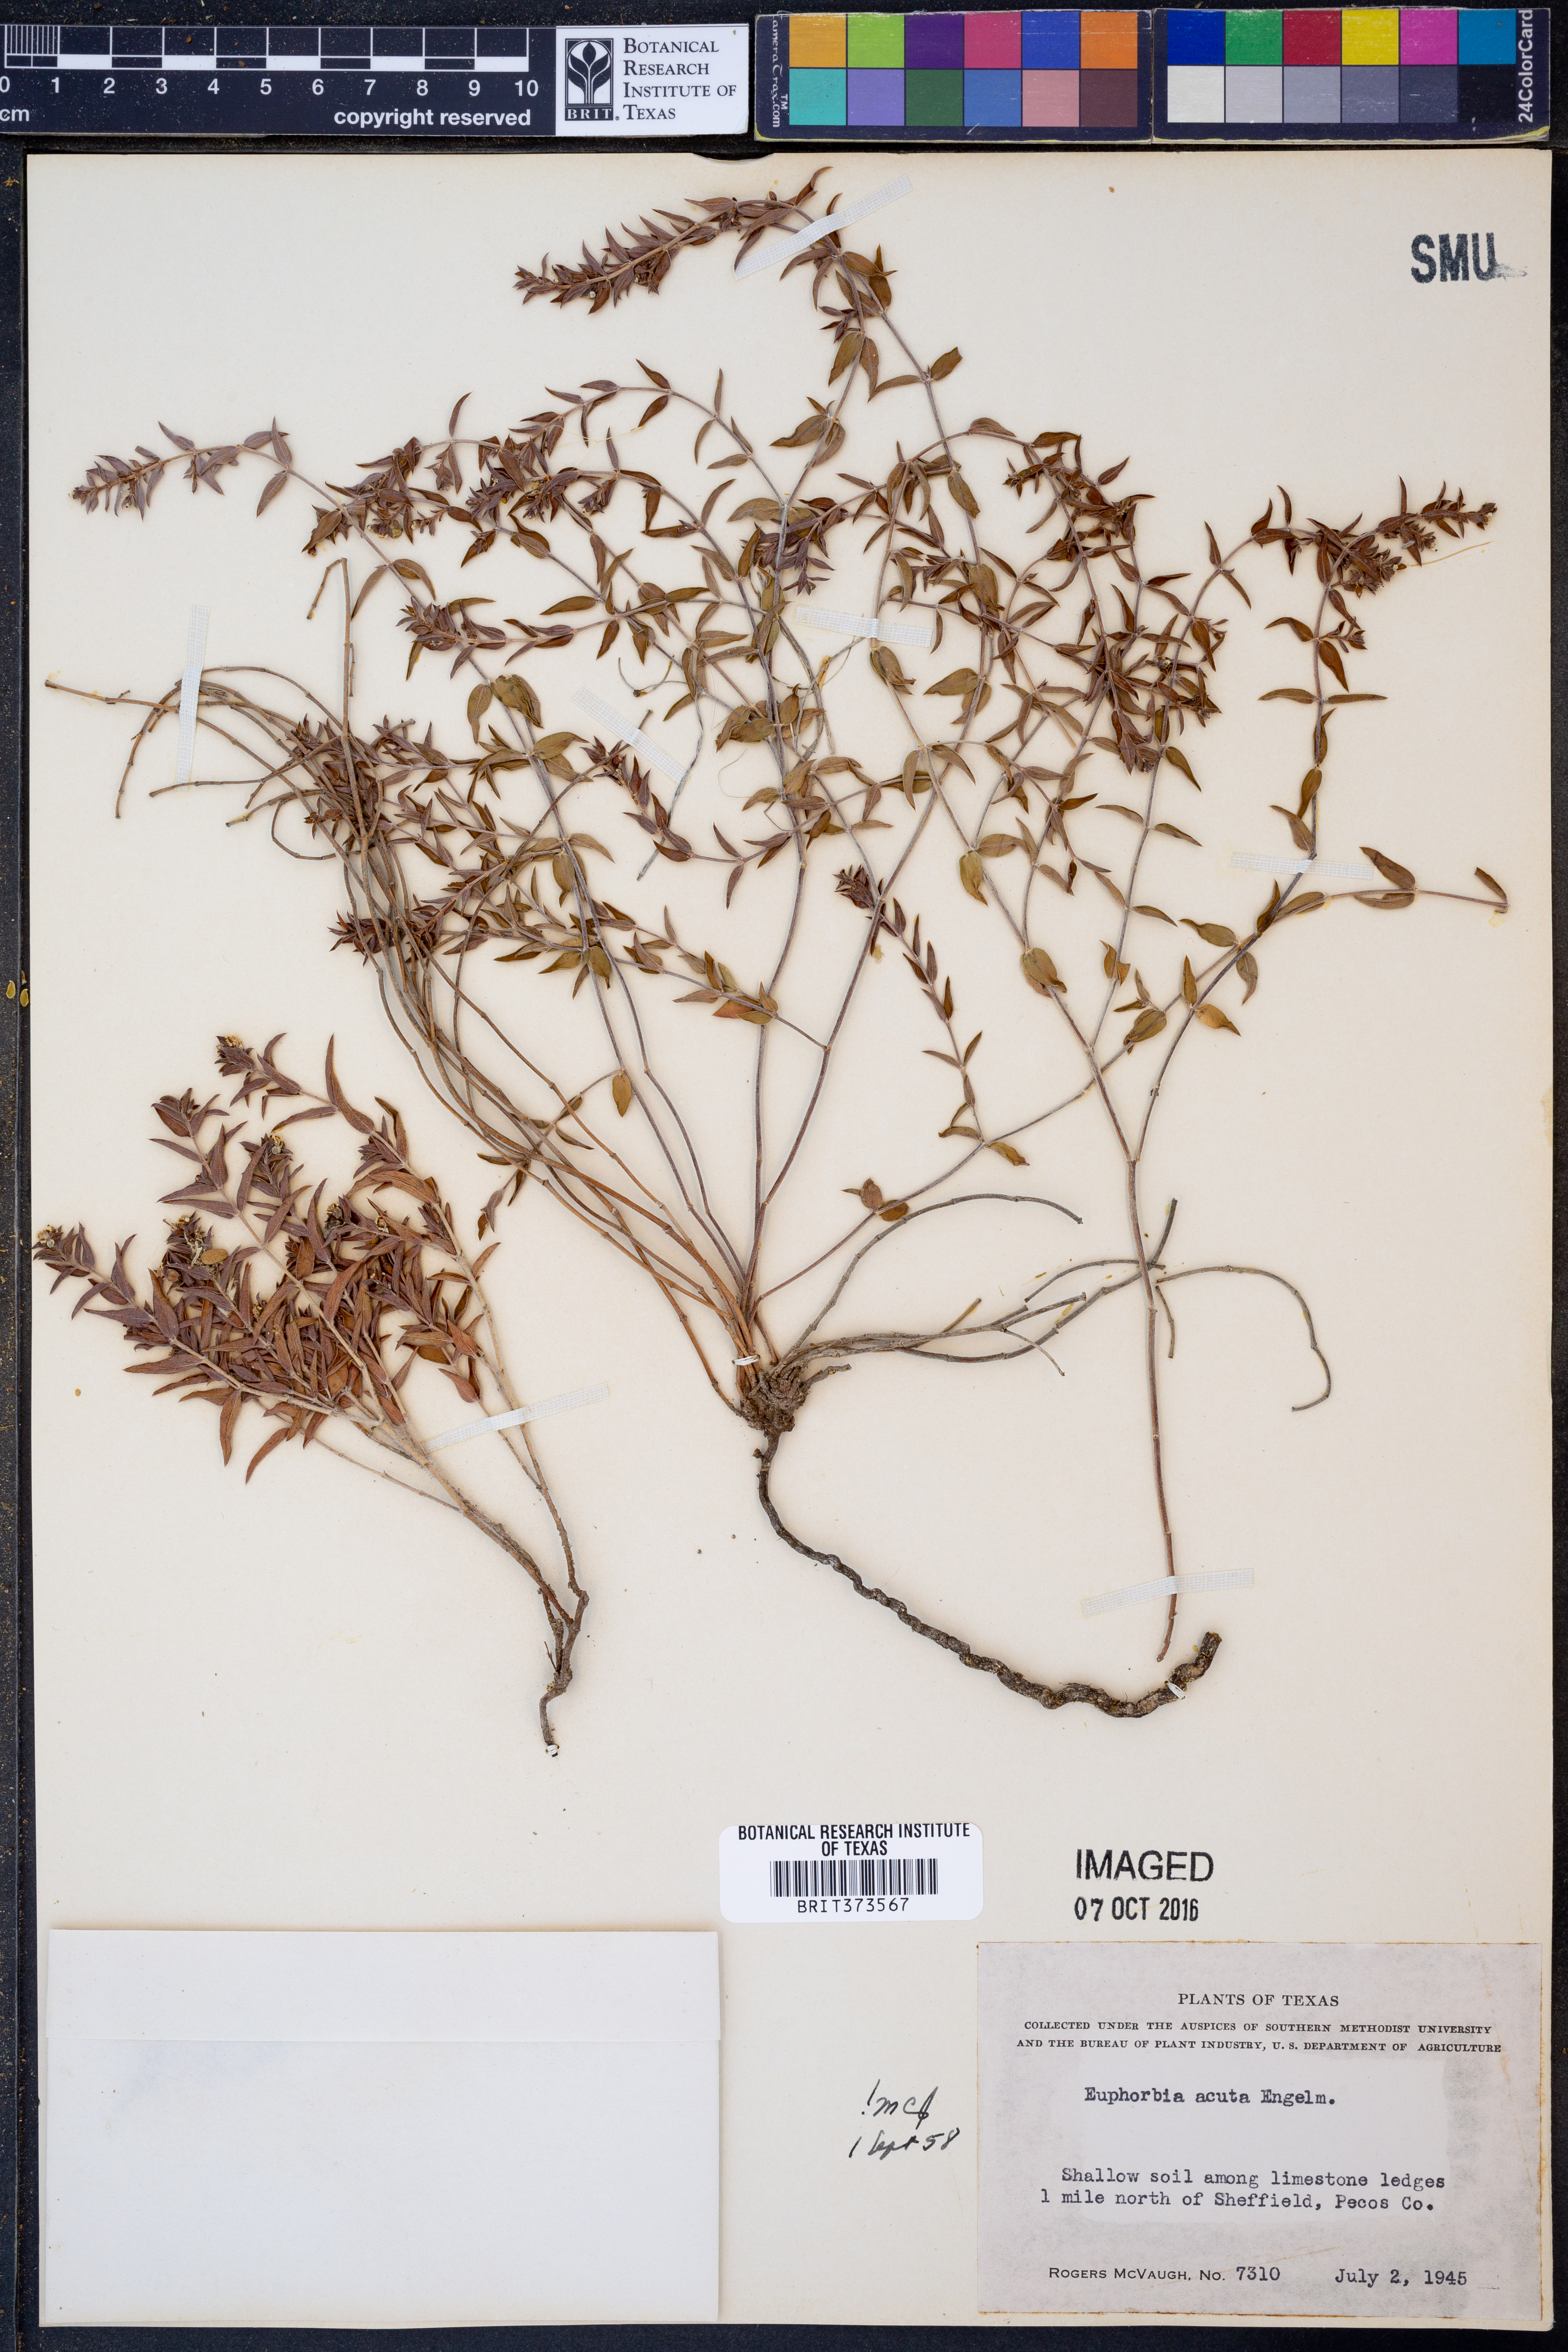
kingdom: Plantae
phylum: Tracheophyta
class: Magnoliopsida
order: Malpighiales
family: Euphorbiaceae
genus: Euphorbia
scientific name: Euphorbia acuta
